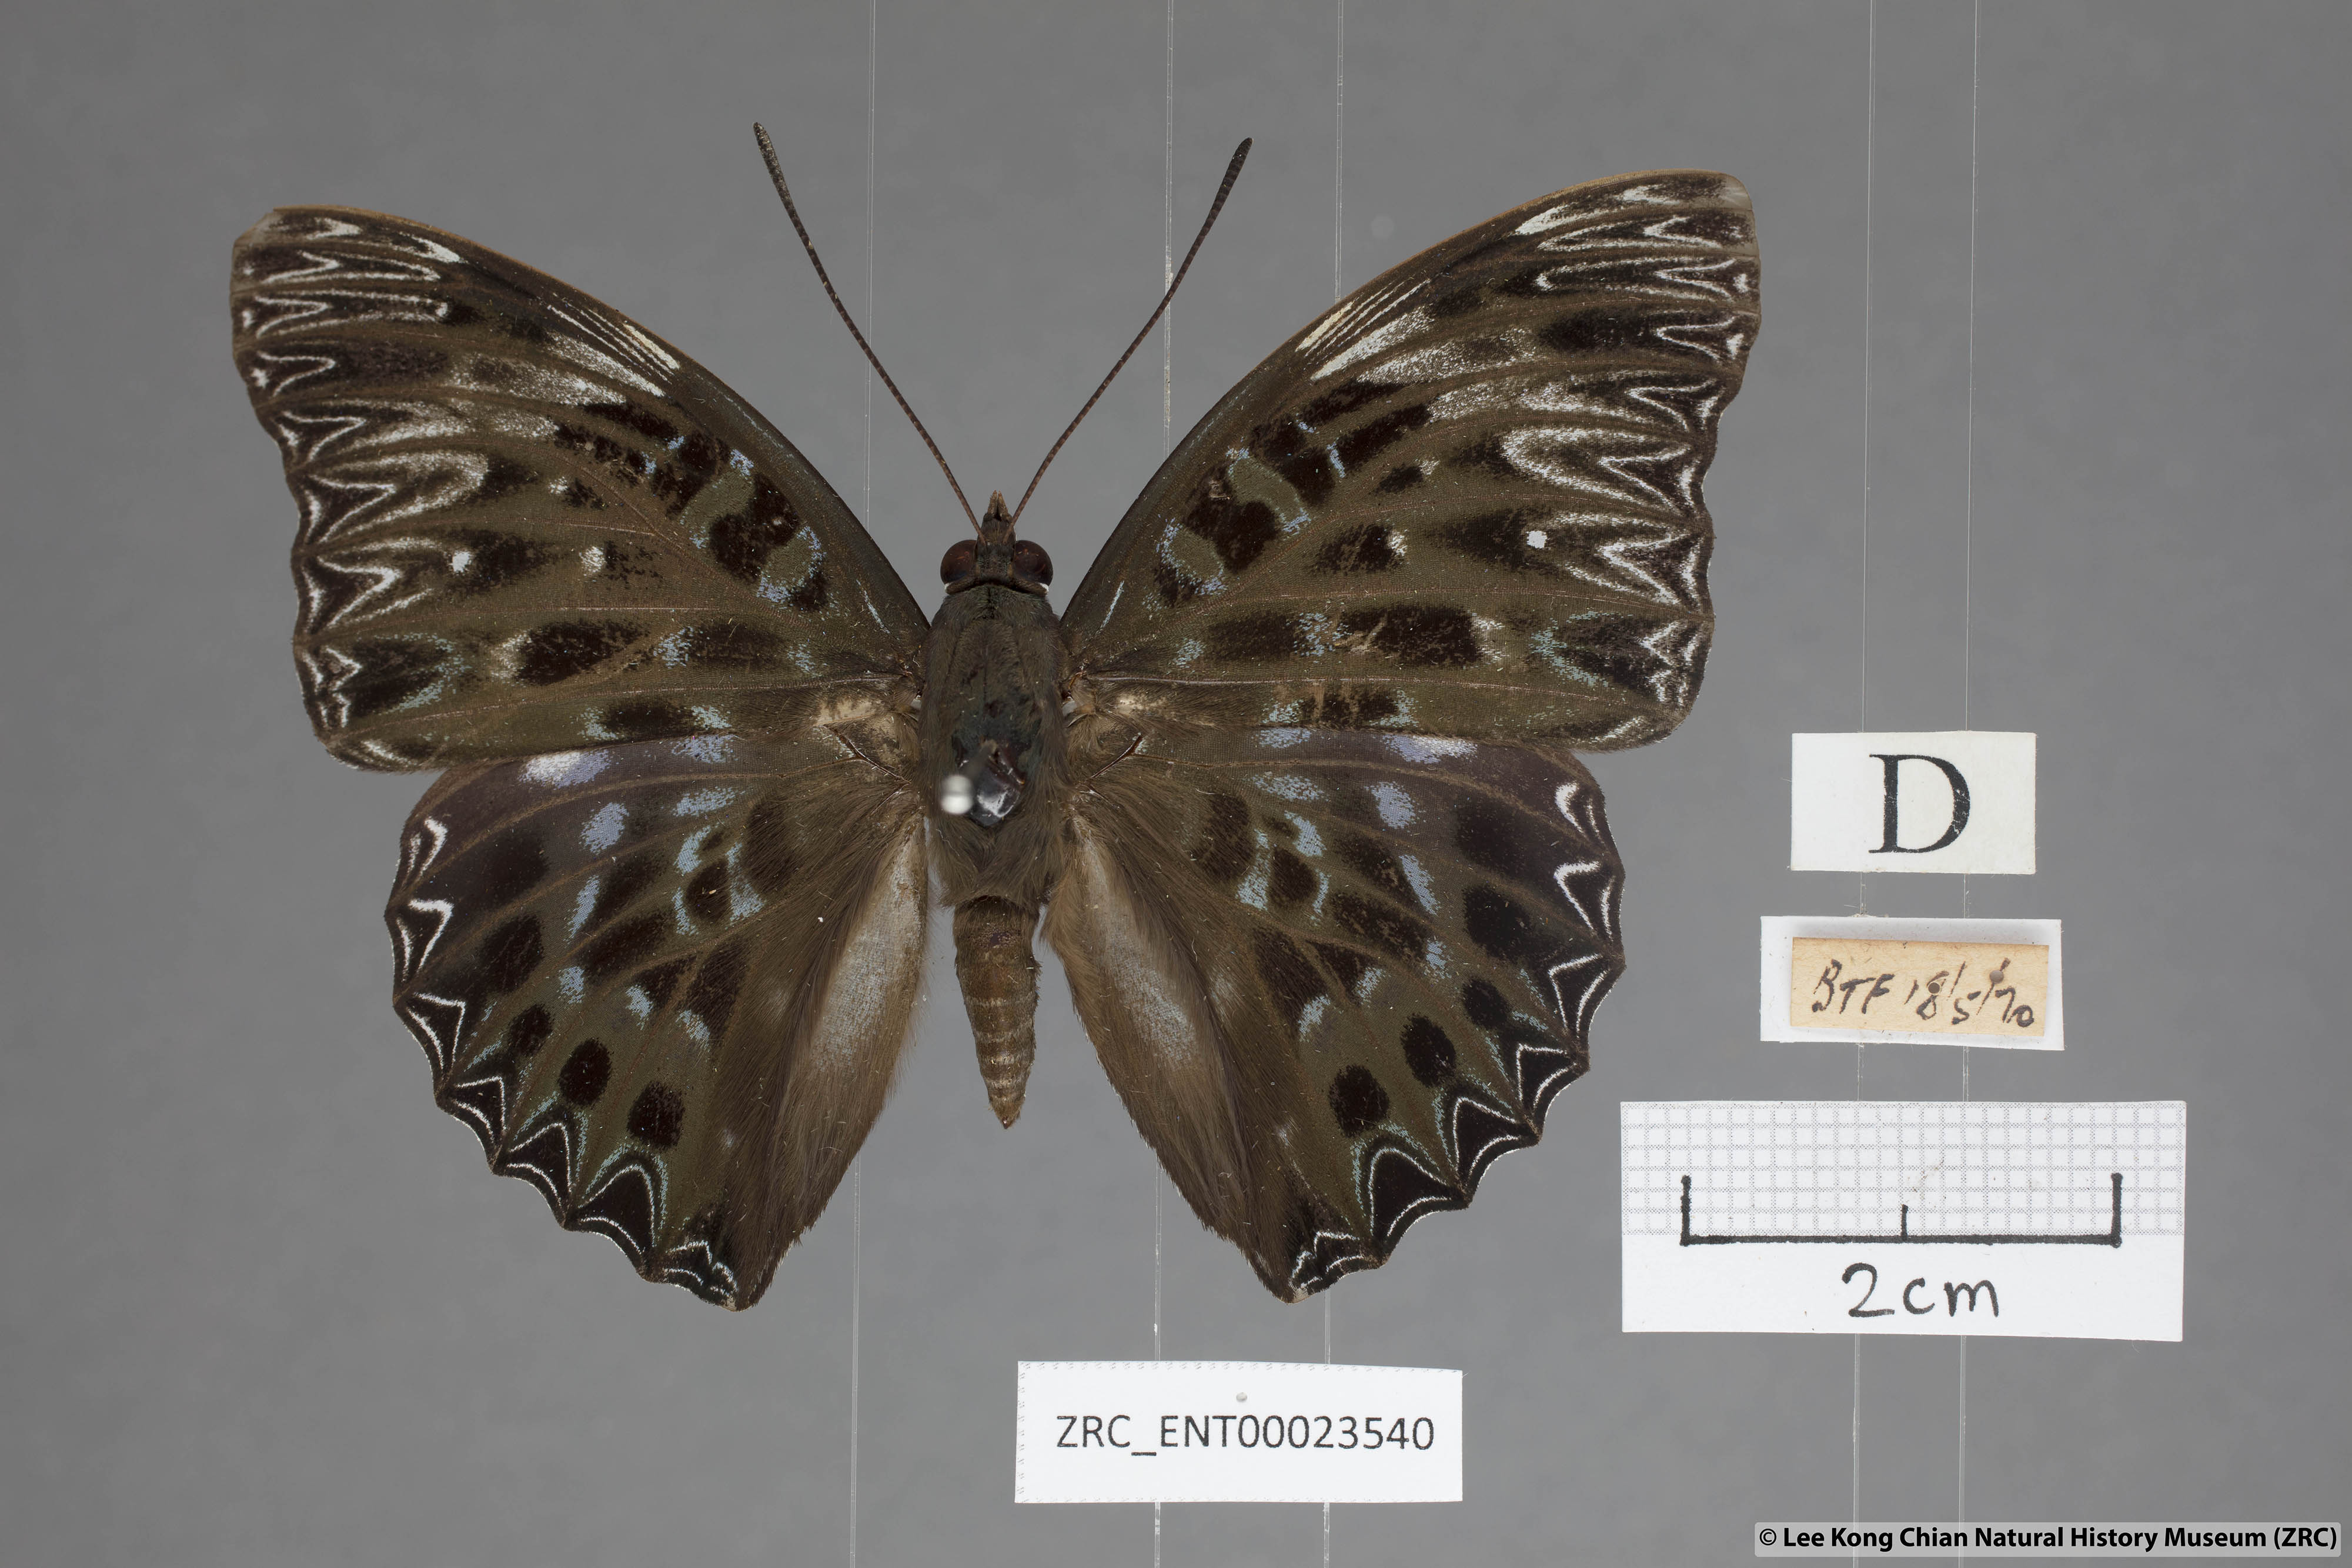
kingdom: Animalia
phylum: Arthropoda
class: Insecta
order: Lepidoptera
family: Nymphalidae
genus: Dichorragia
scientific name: Dichorragia nesimachus
